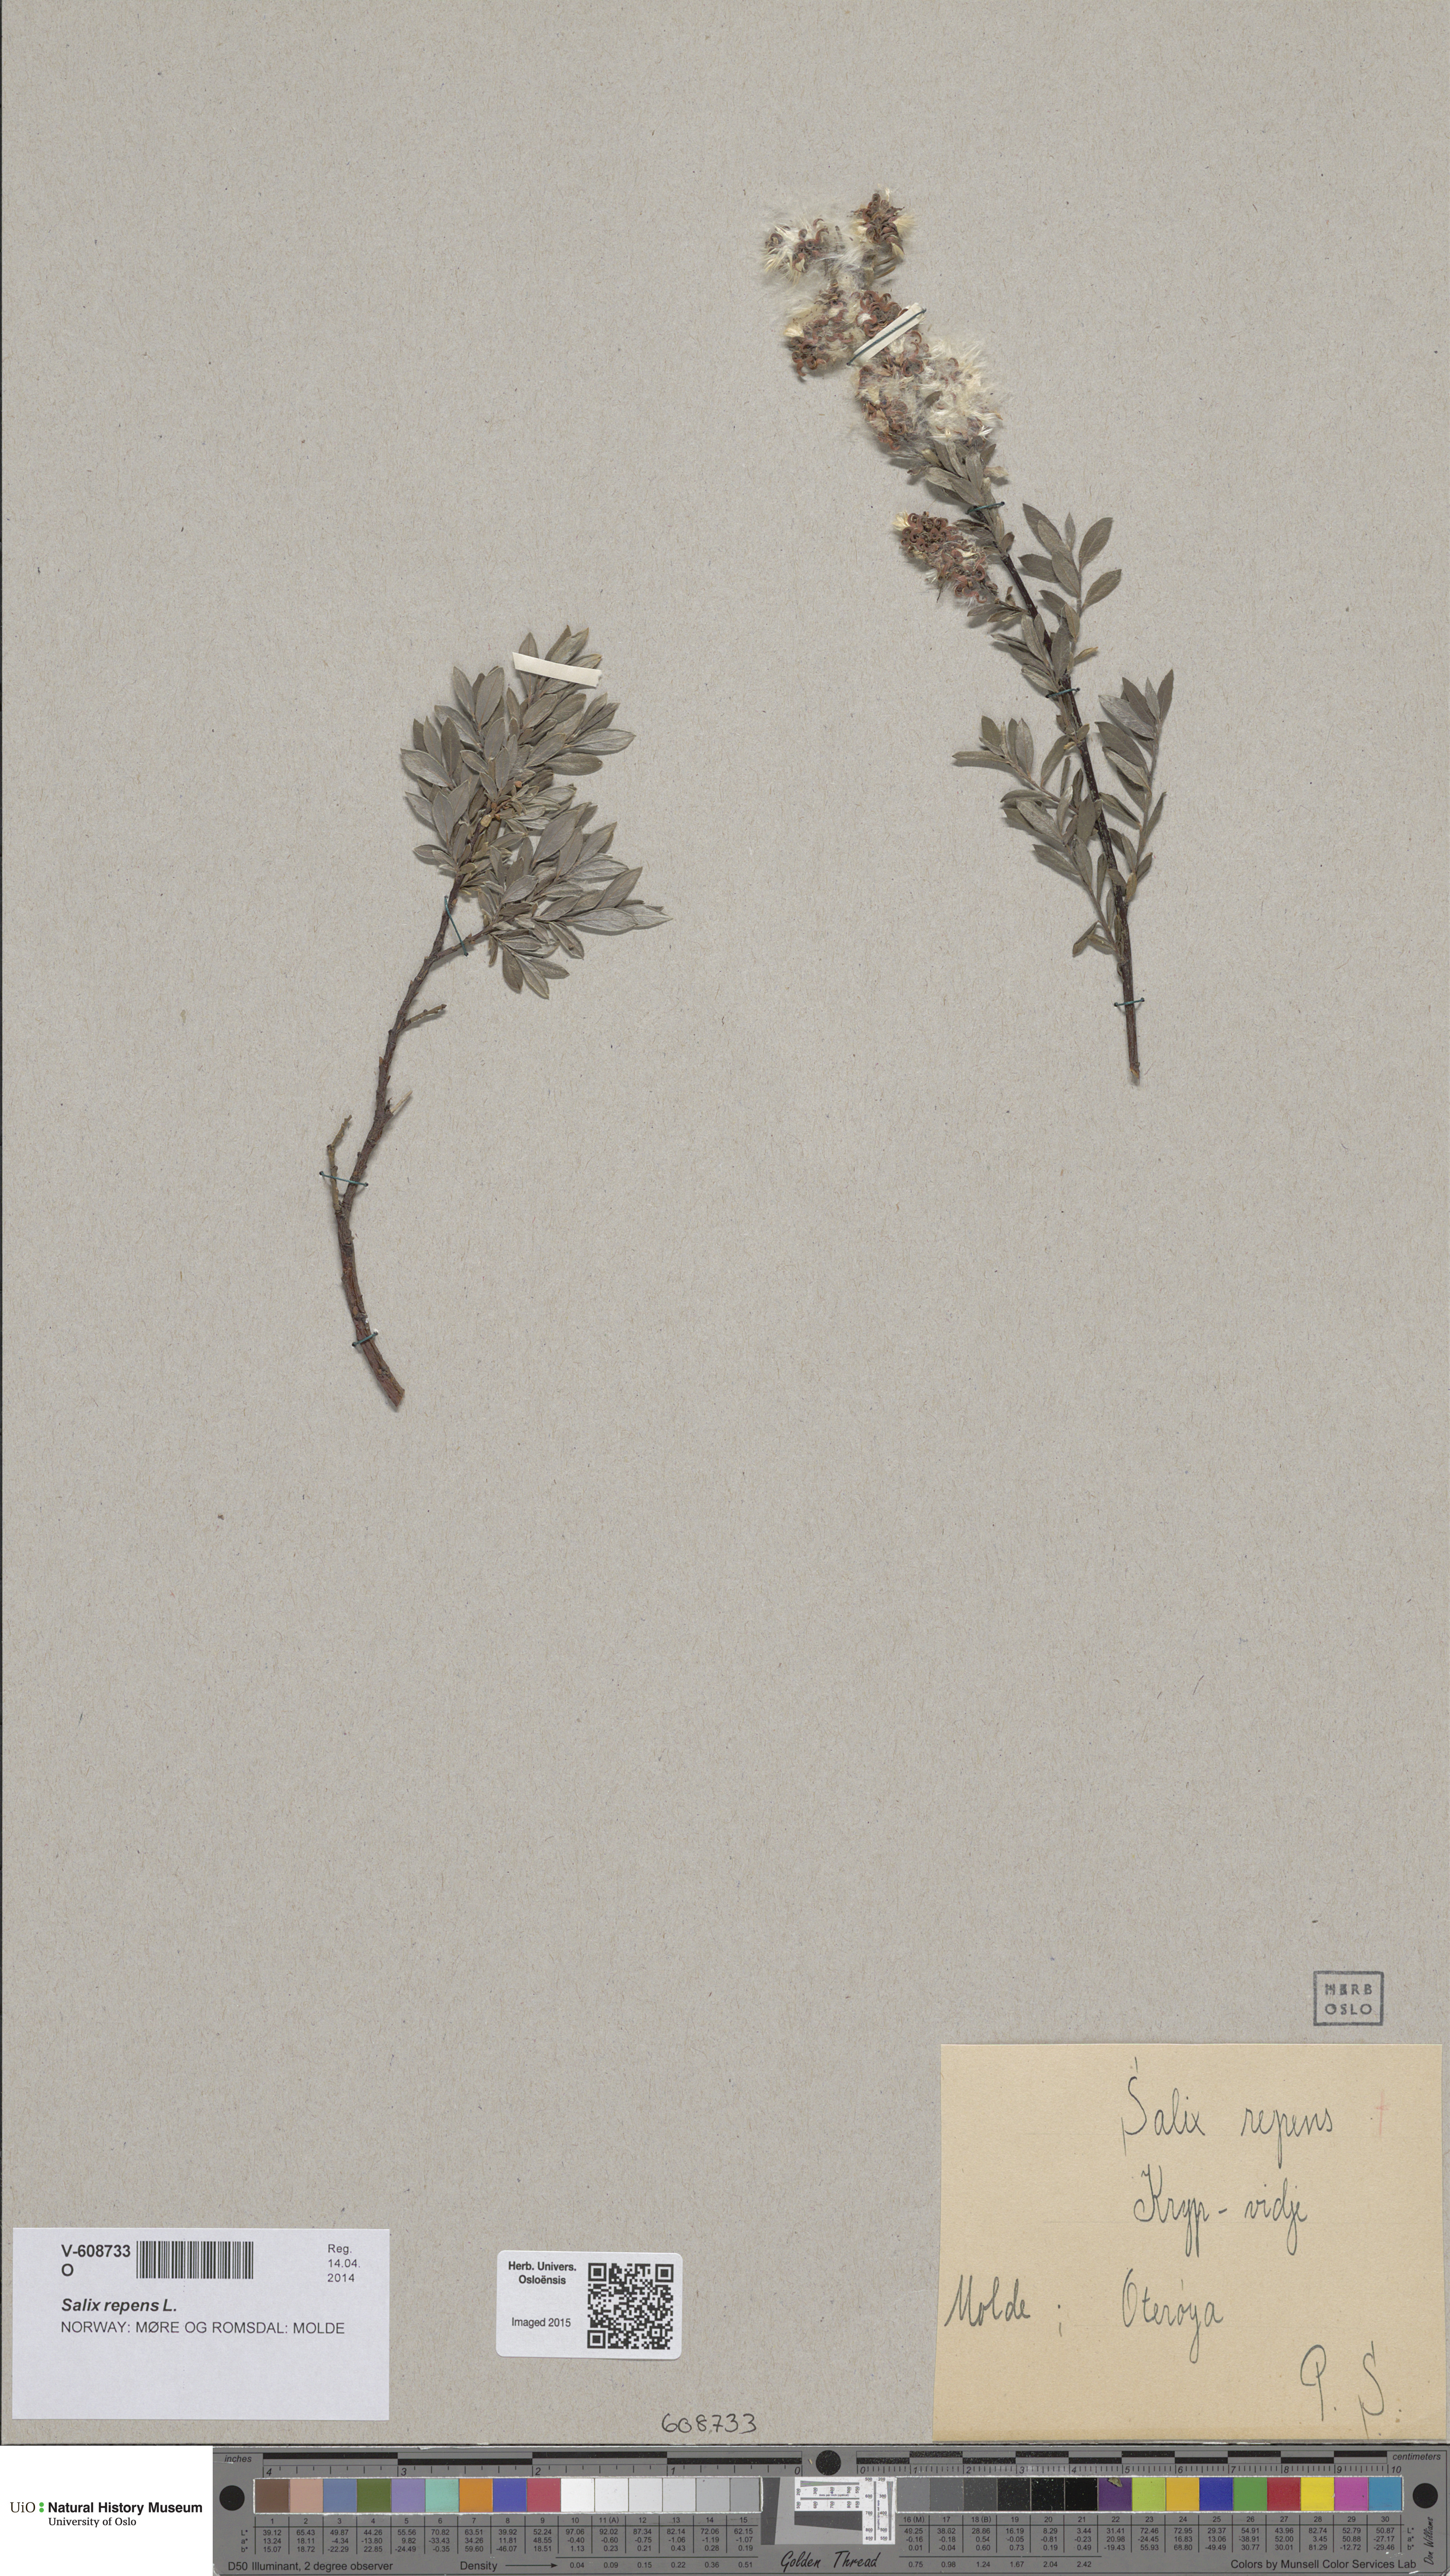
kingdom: Plantae
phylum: Tracheophyta
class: Magnoliopsida
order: Malpighiales
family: Salicaceae
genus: Salix
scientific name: Salix repens
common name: Creeping willow
